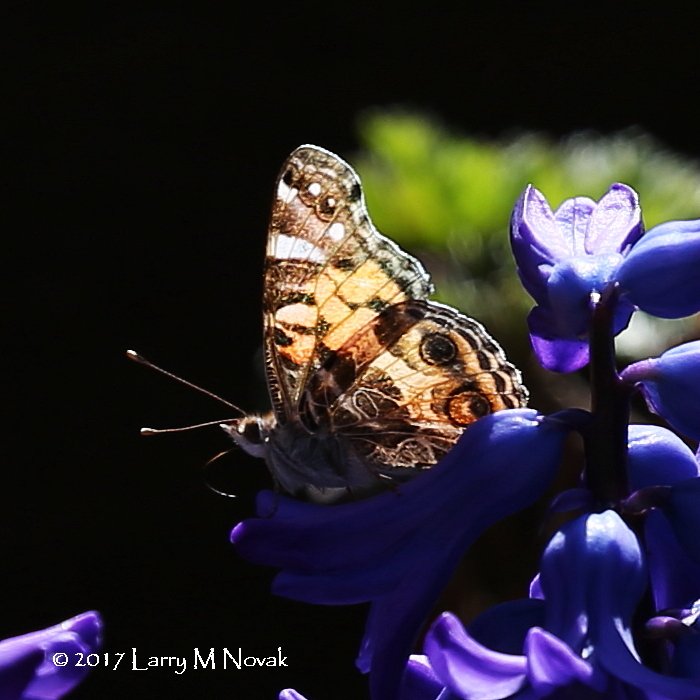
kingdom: Animalia
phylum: Arthropoda
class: Insecta
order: Lepidoptera
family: Nymphalidae
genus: Vanessa
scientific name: Vanessa virginiensis
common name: American Lady
